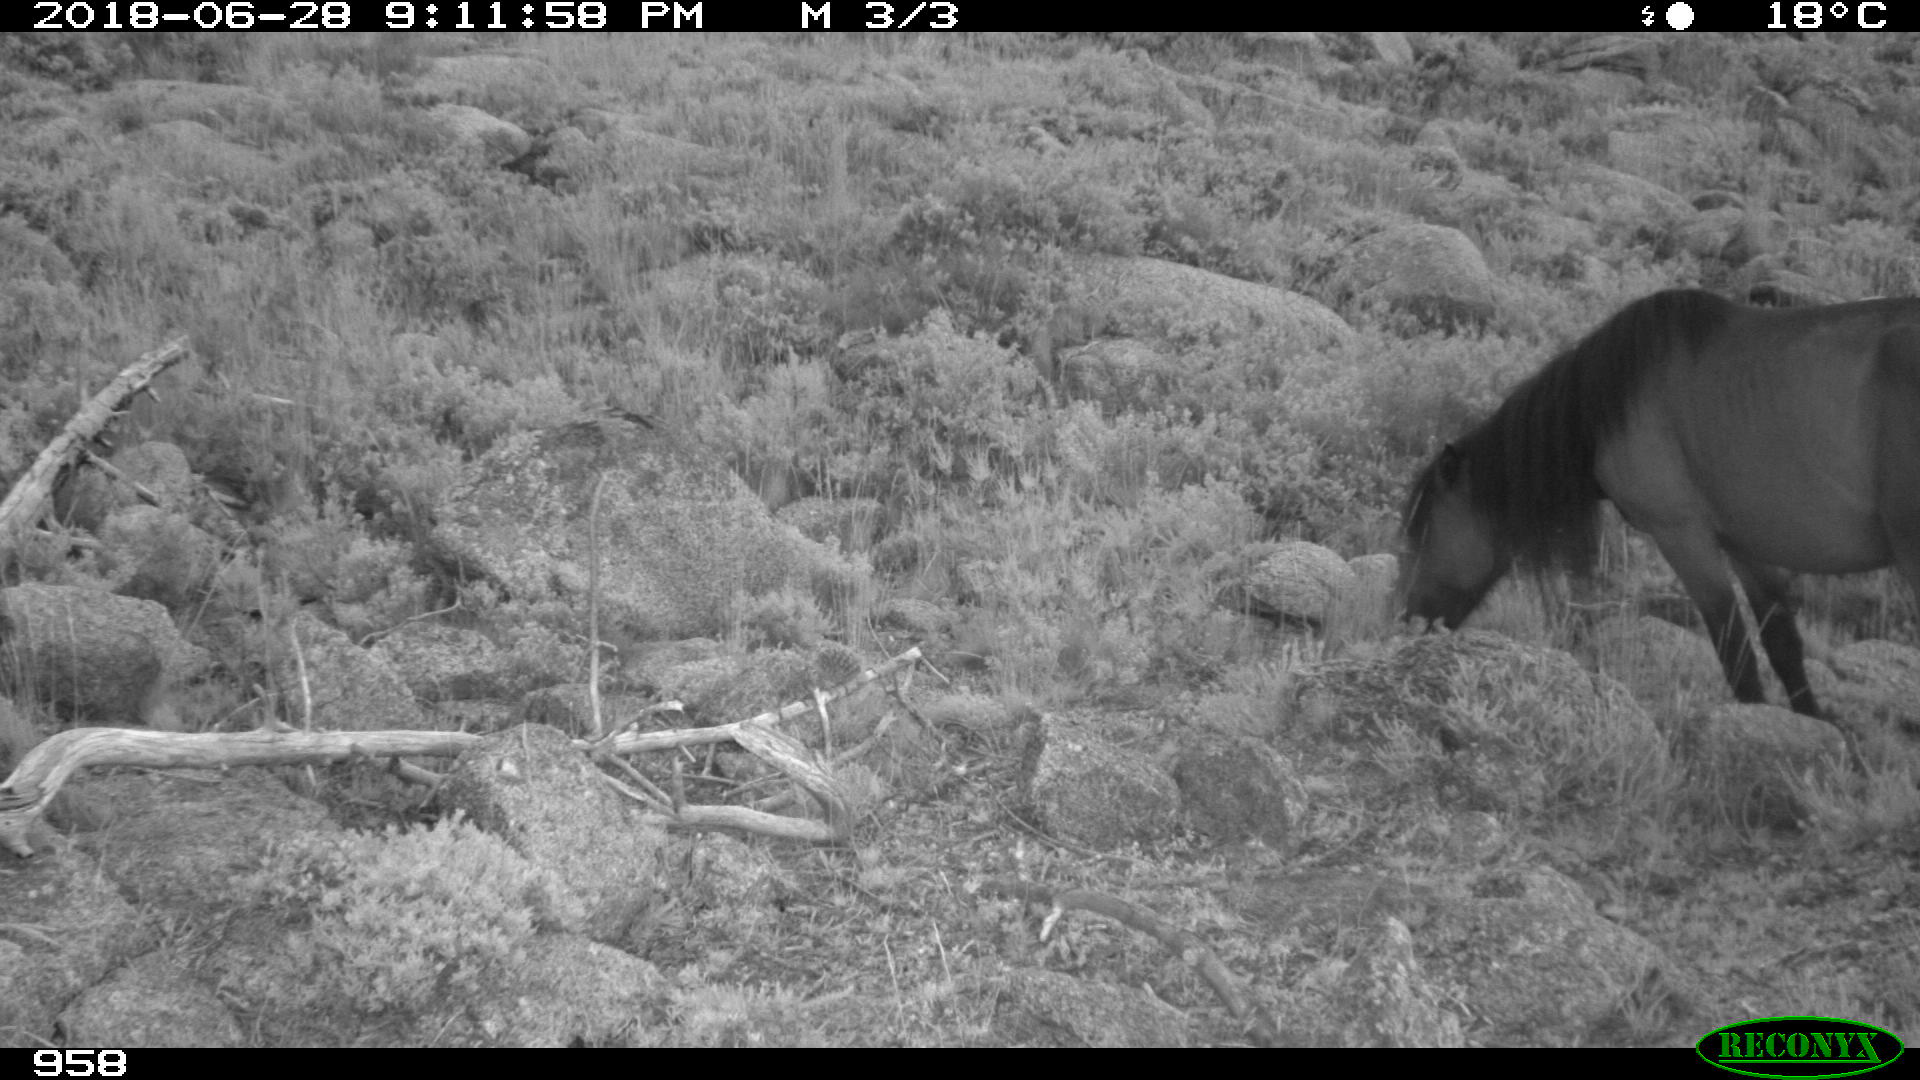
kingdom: Animalia
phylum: Chordata
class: Mammalia
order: Perissodactyla
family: Equidae
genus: Equus
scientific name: Equus caballus
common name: Horse
